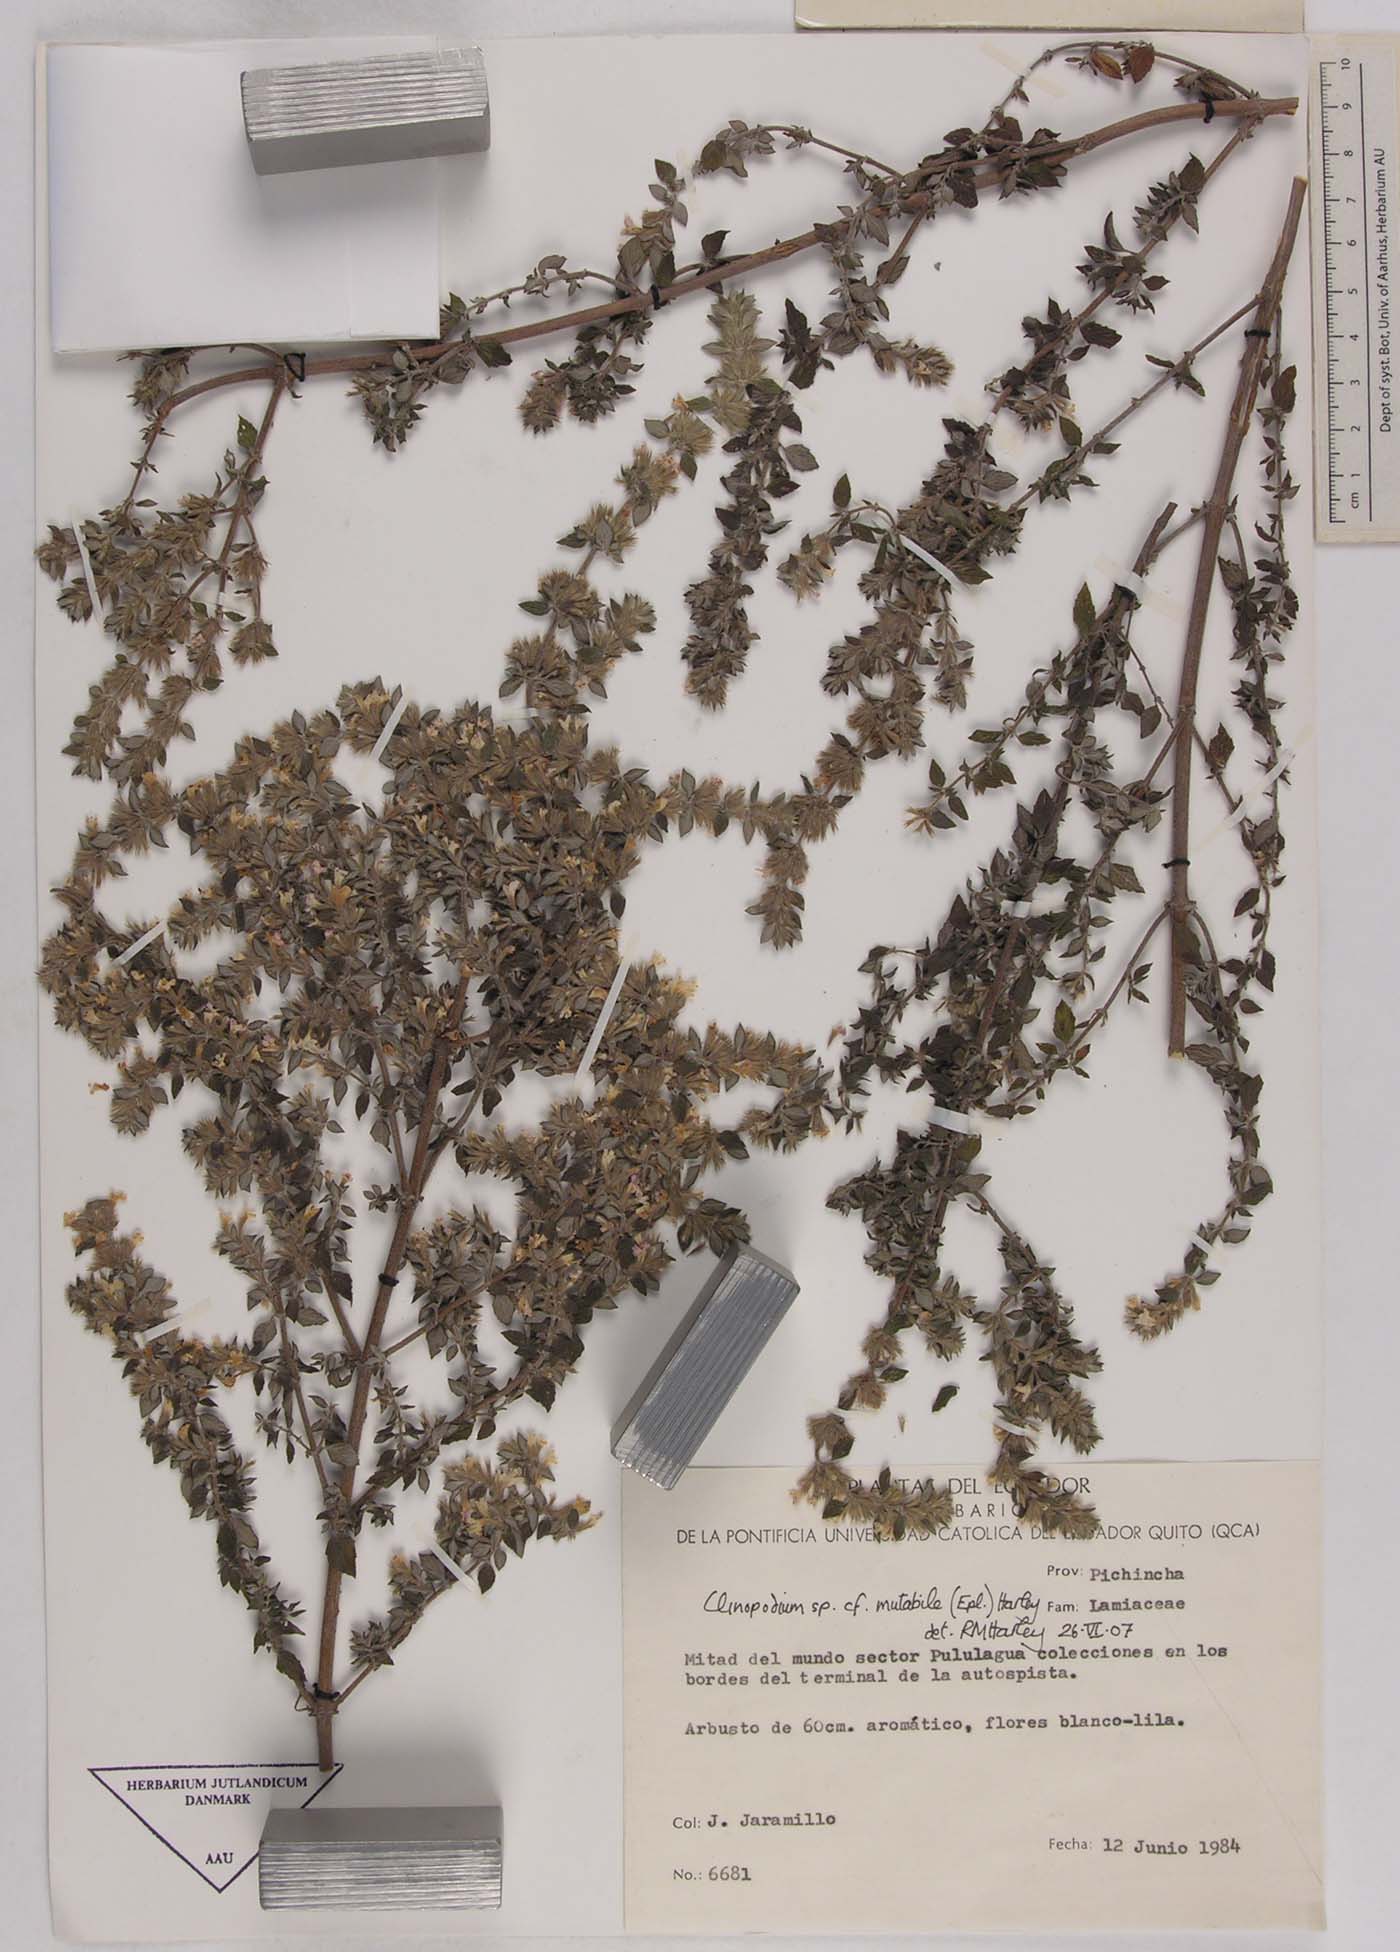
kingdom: Plantae
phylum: Tracheophyta
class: Magnoliopsida
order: Lamiales
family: Lamiaceae
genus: Clinopodium
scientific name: Clinopodium mutabile
